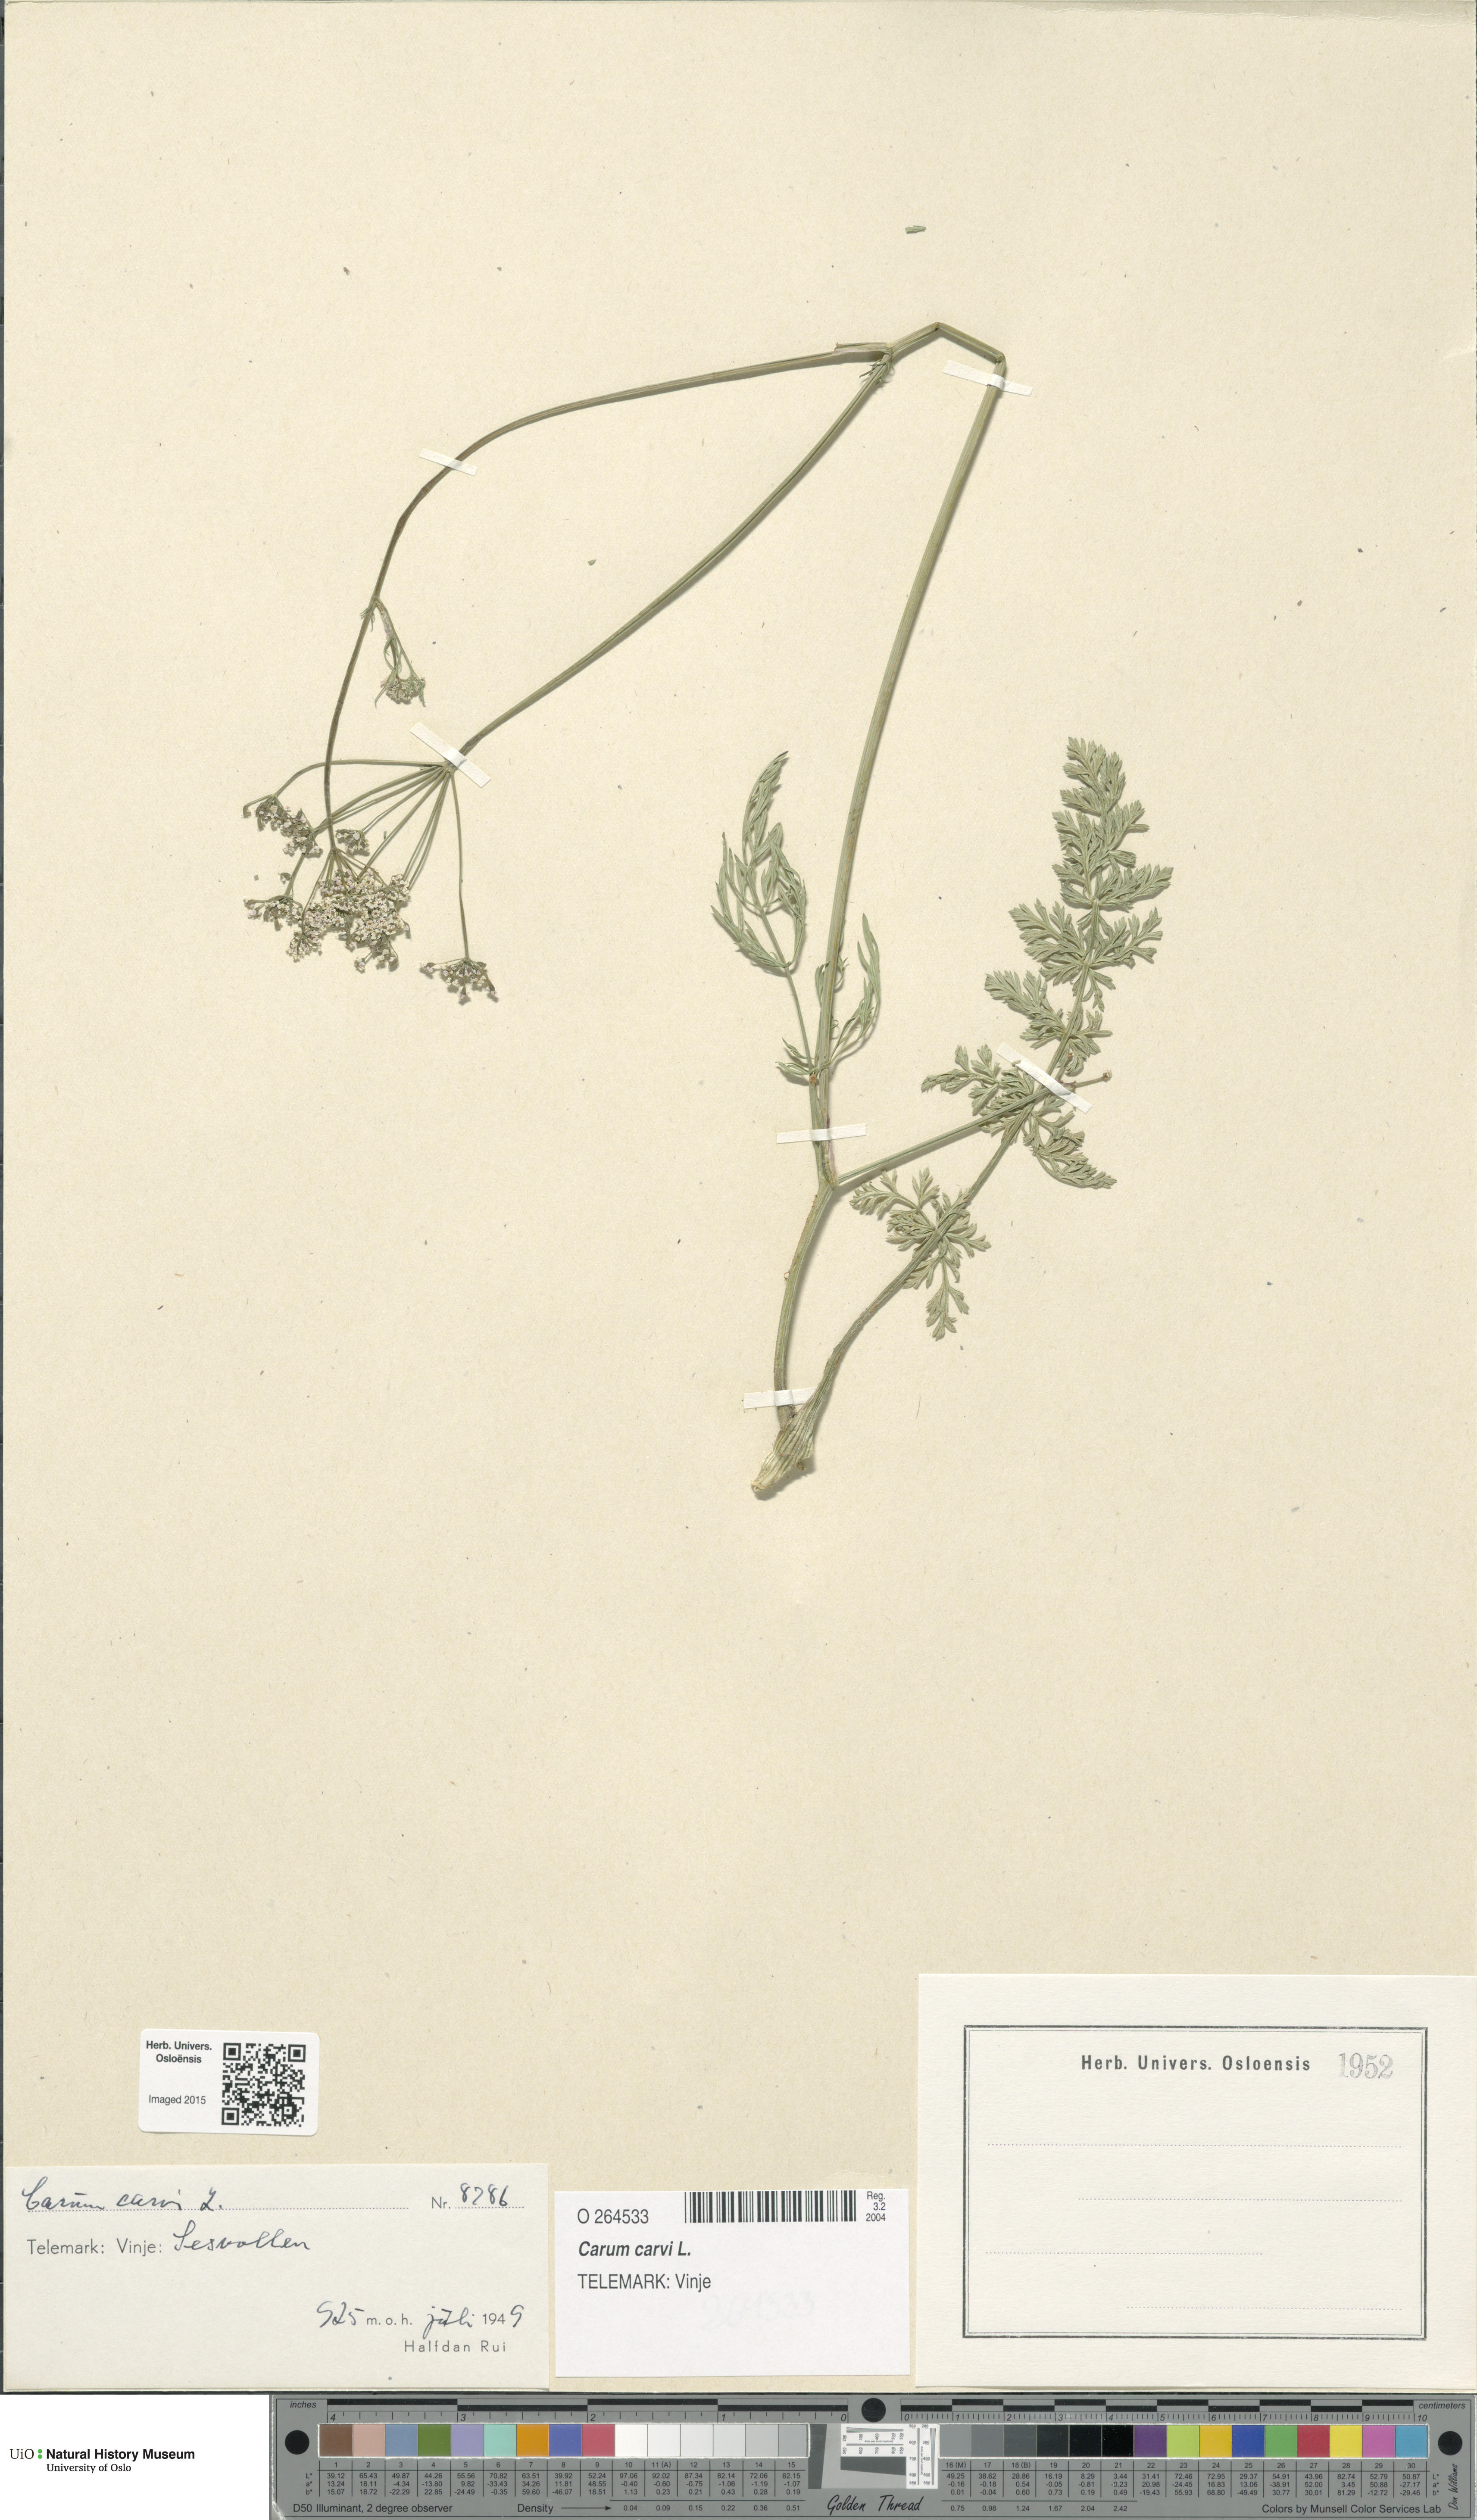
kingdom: Plantae
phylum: Tracheophyta
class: Magnoliopsida
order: Apiales
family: Apiaceae
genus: Carum
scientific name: Carum carvi
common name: Caraway
